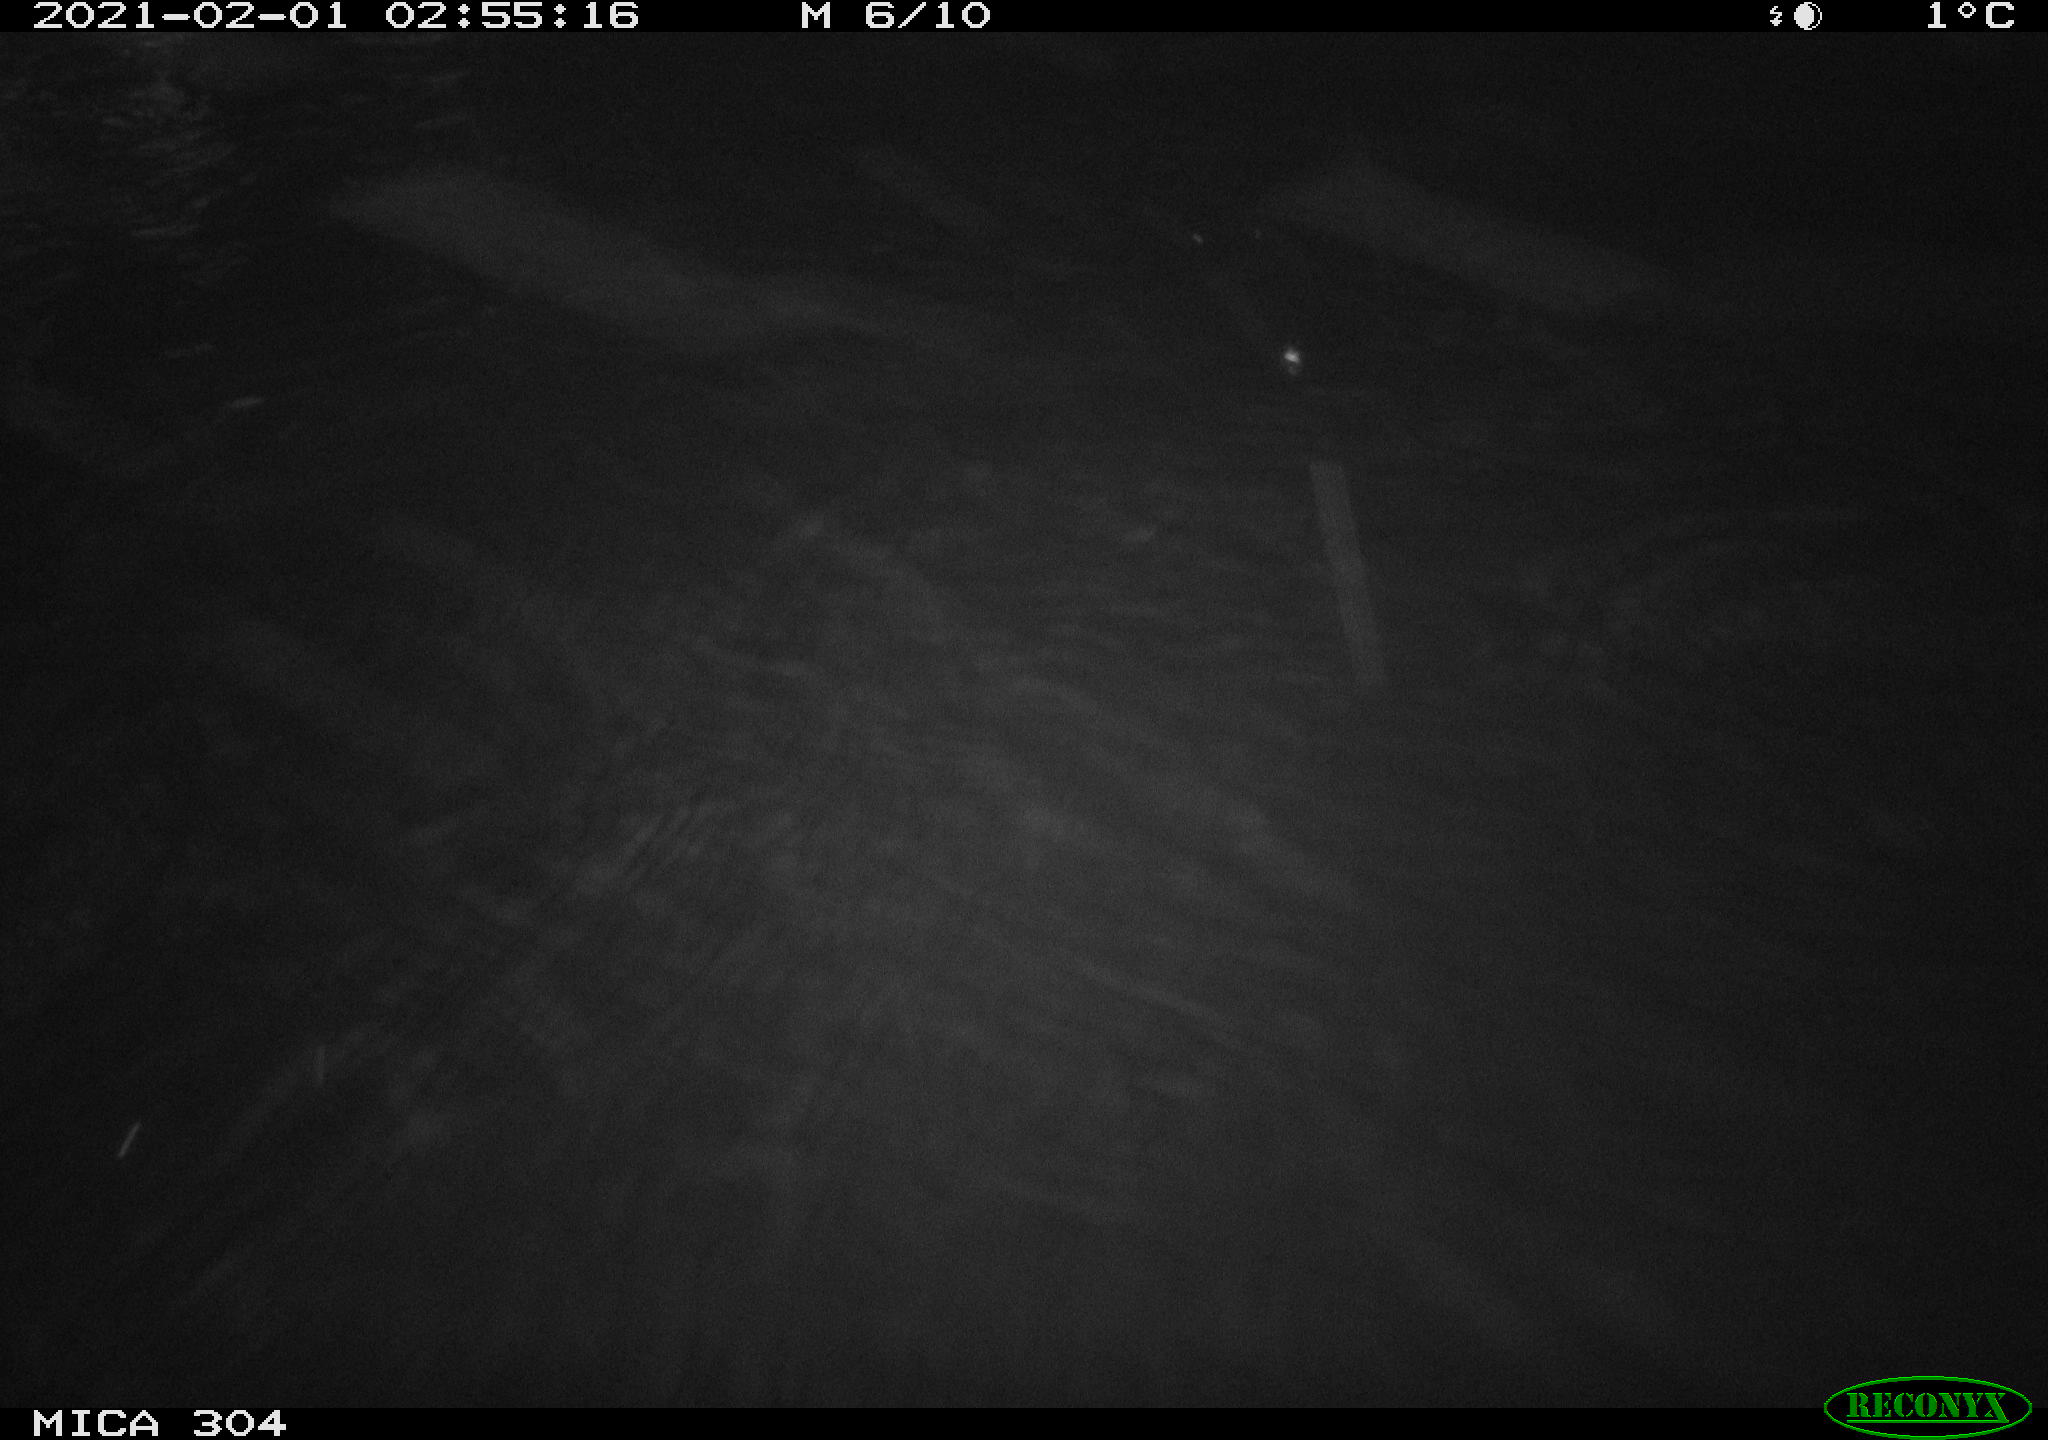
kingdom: Animalia
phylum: Chordata
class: Mammalia
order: Rodentia
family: Cricetidae
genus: Ondatra
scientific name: Ondatra zibethicus
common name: Muskrat
